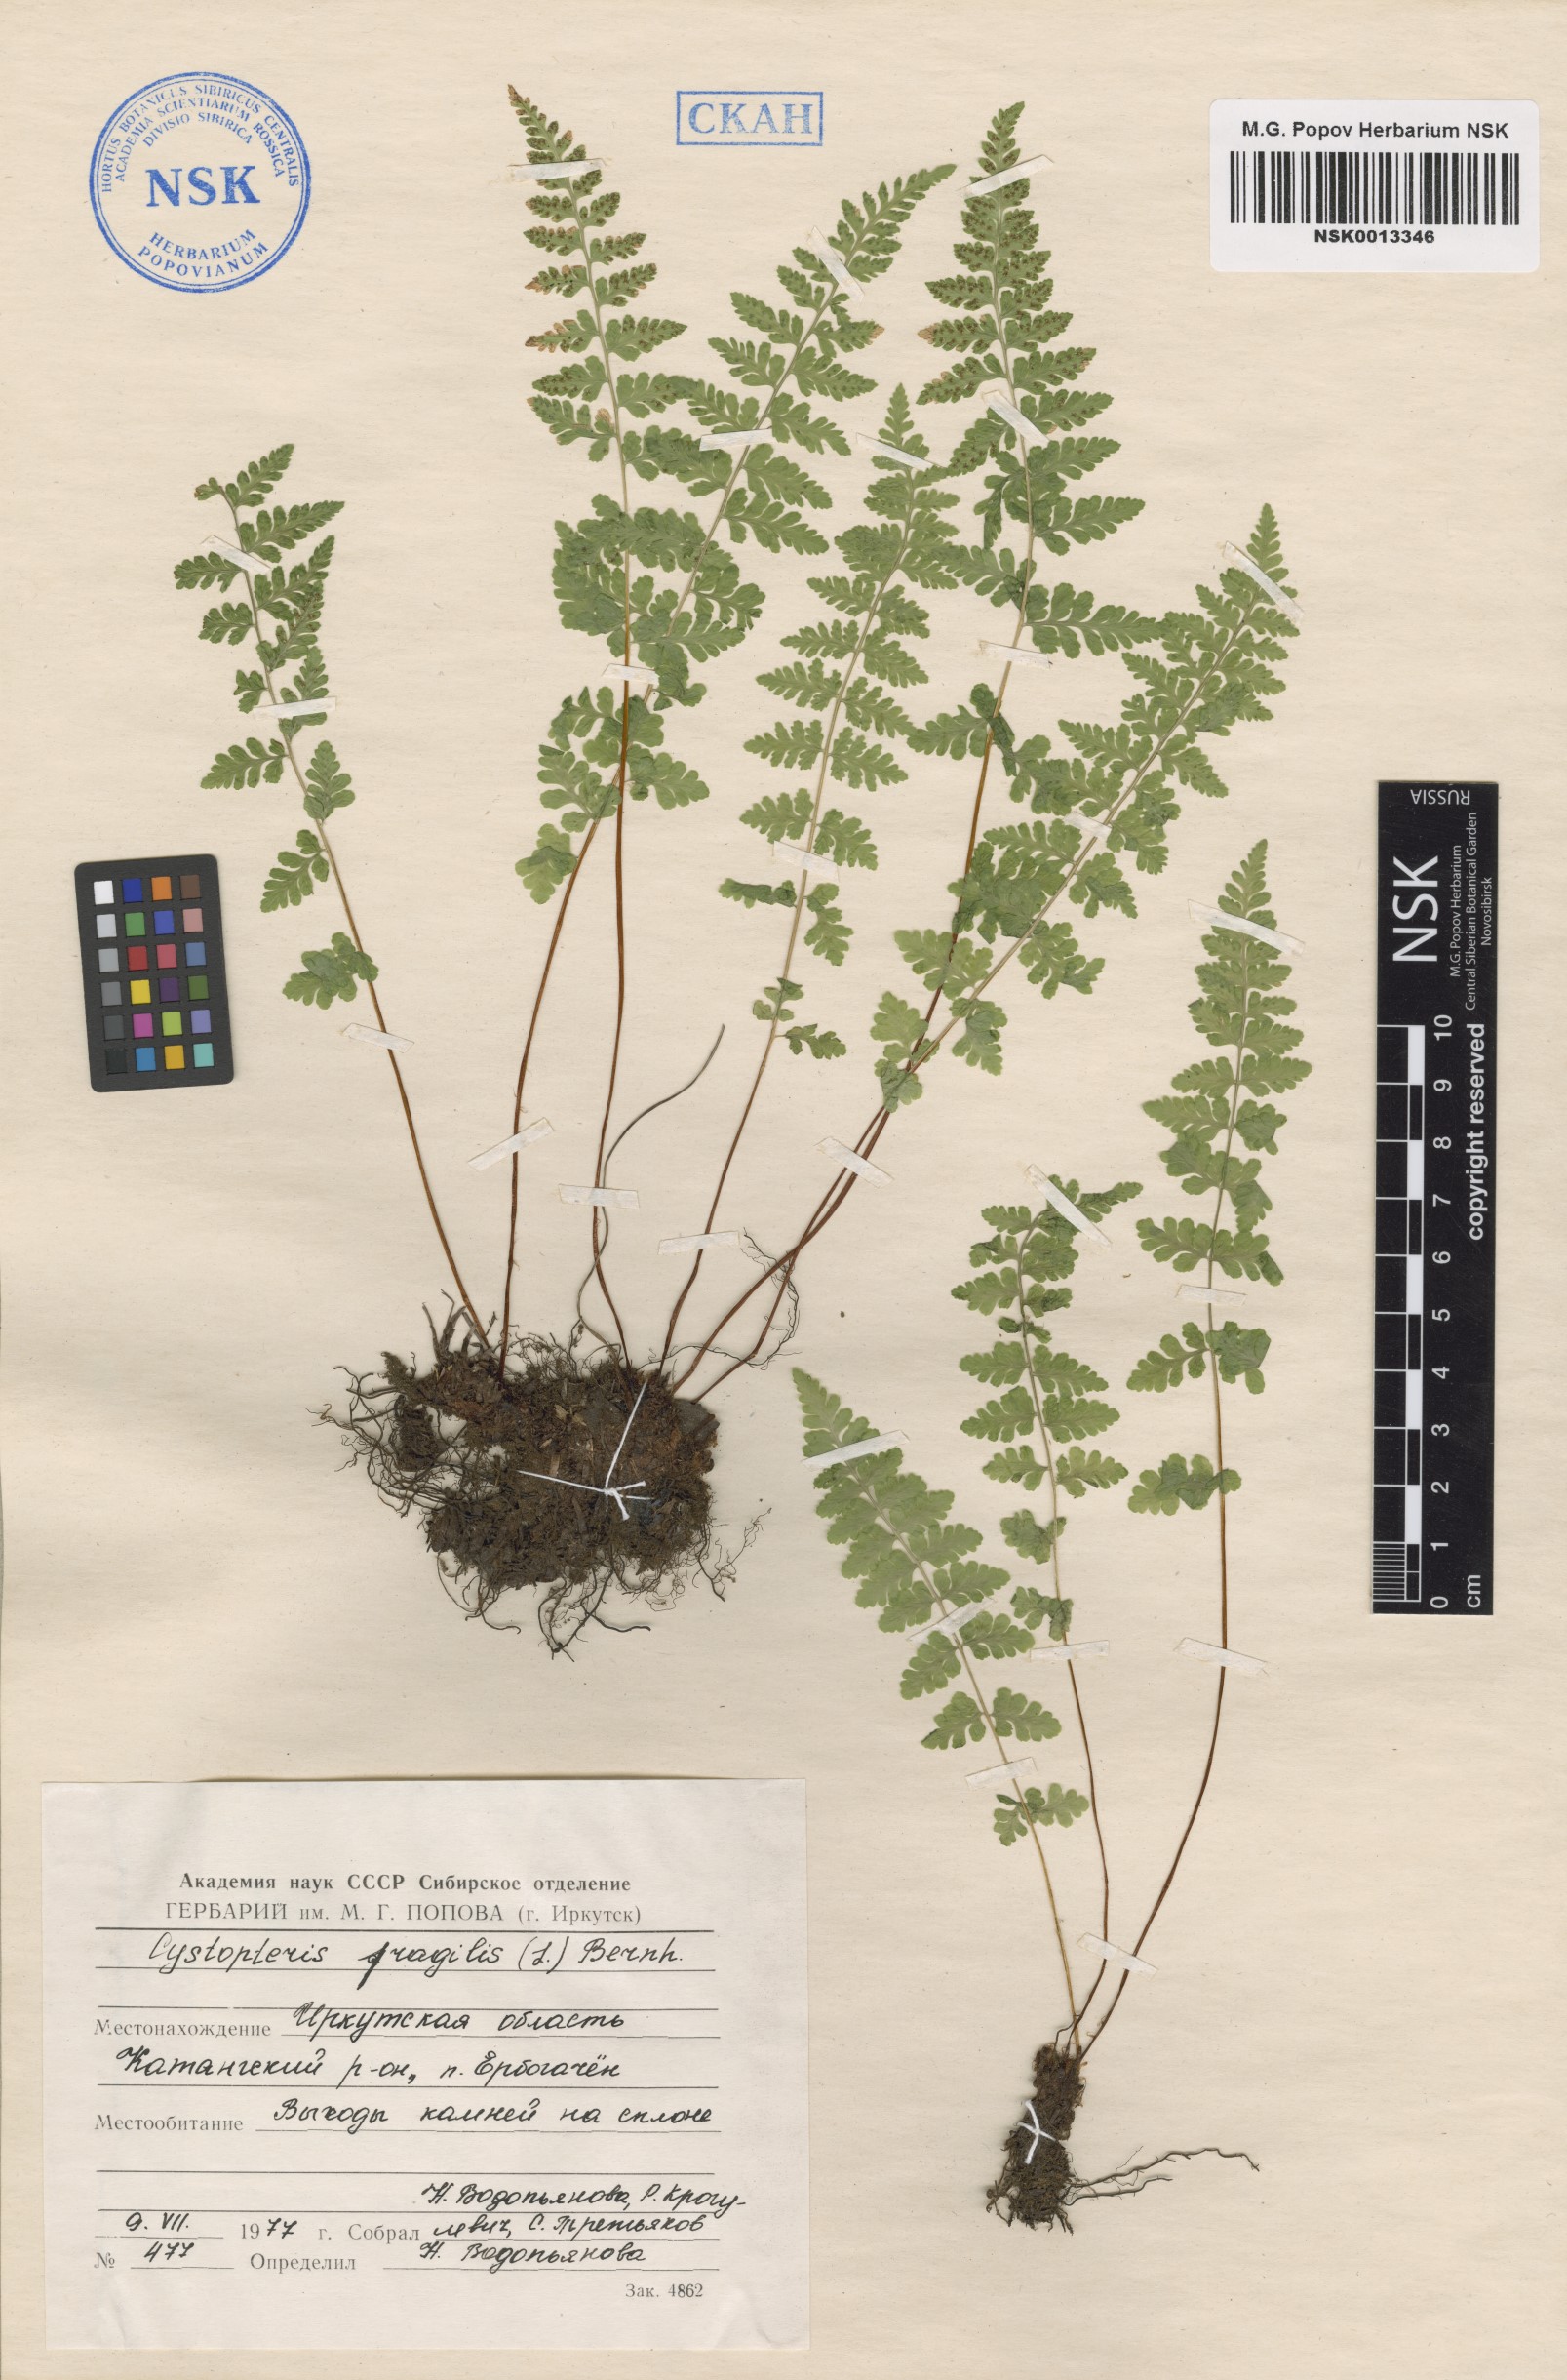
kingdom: Plantae
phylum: Tracheophyta
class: Polypodiopsida
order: Polypodiales
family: Cystopteridaceae
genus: Cystopteris
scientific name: Cystopteris fragilis
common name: Brittle bladder fern
